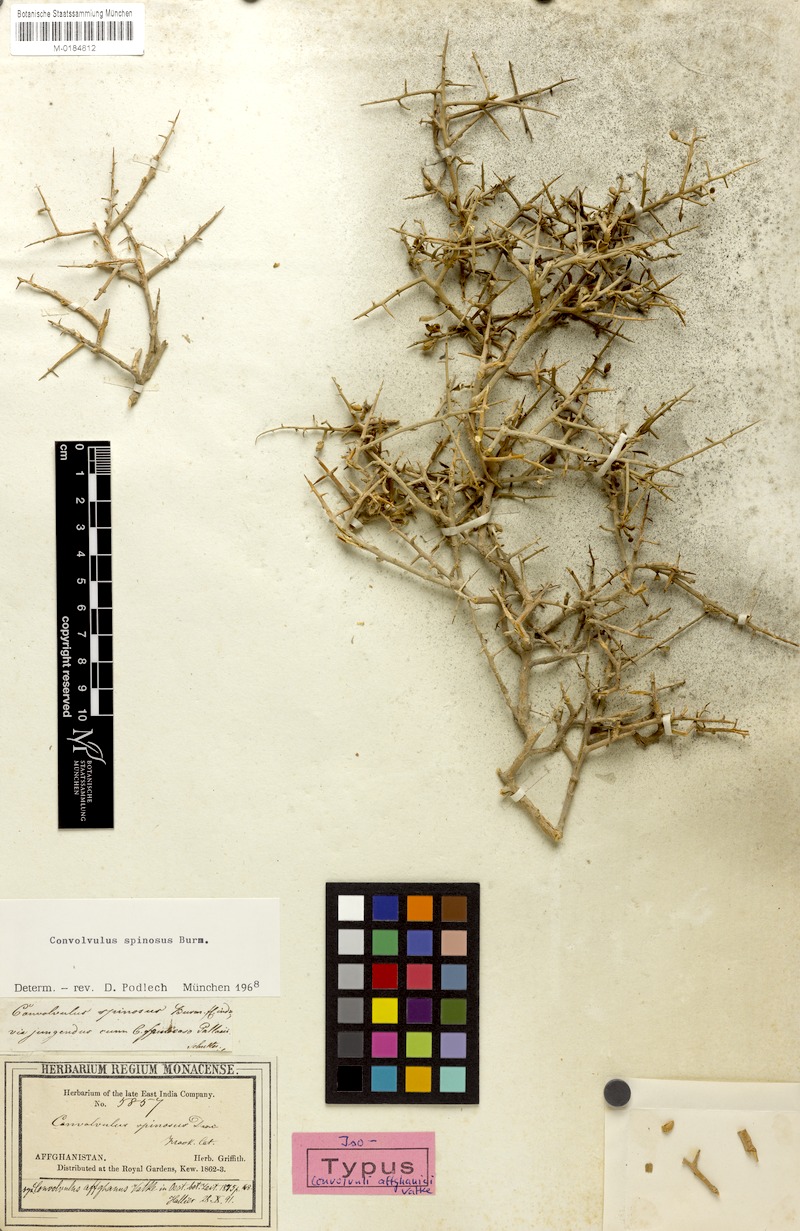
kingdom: Plantae
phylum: Tracheophyta
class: Magnoliopsida
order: Solanales
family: Convolvulaceae
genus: Convolvulus
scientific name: Convolvulus spinosus
